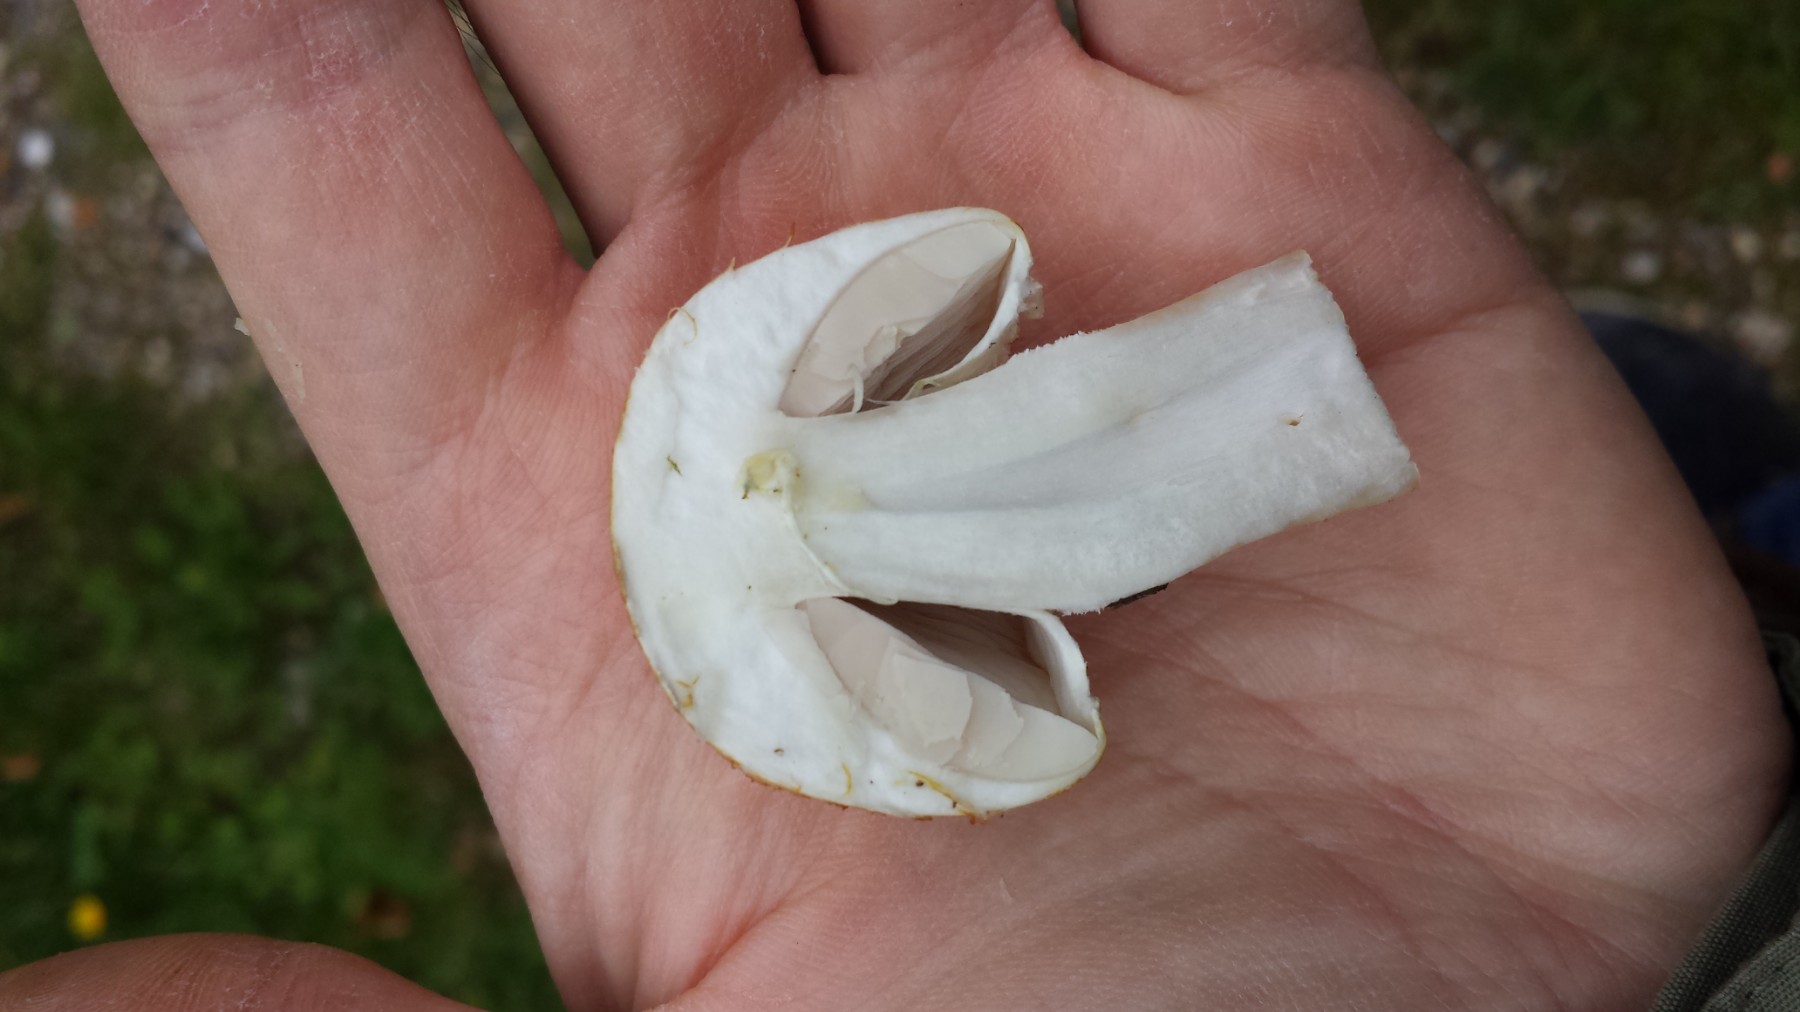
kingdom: Fungi
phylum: Basidiomycota
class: Agaricomycetes
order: Agaricales
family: Agaricaceae
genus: Agaricus
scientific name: Agaricus
